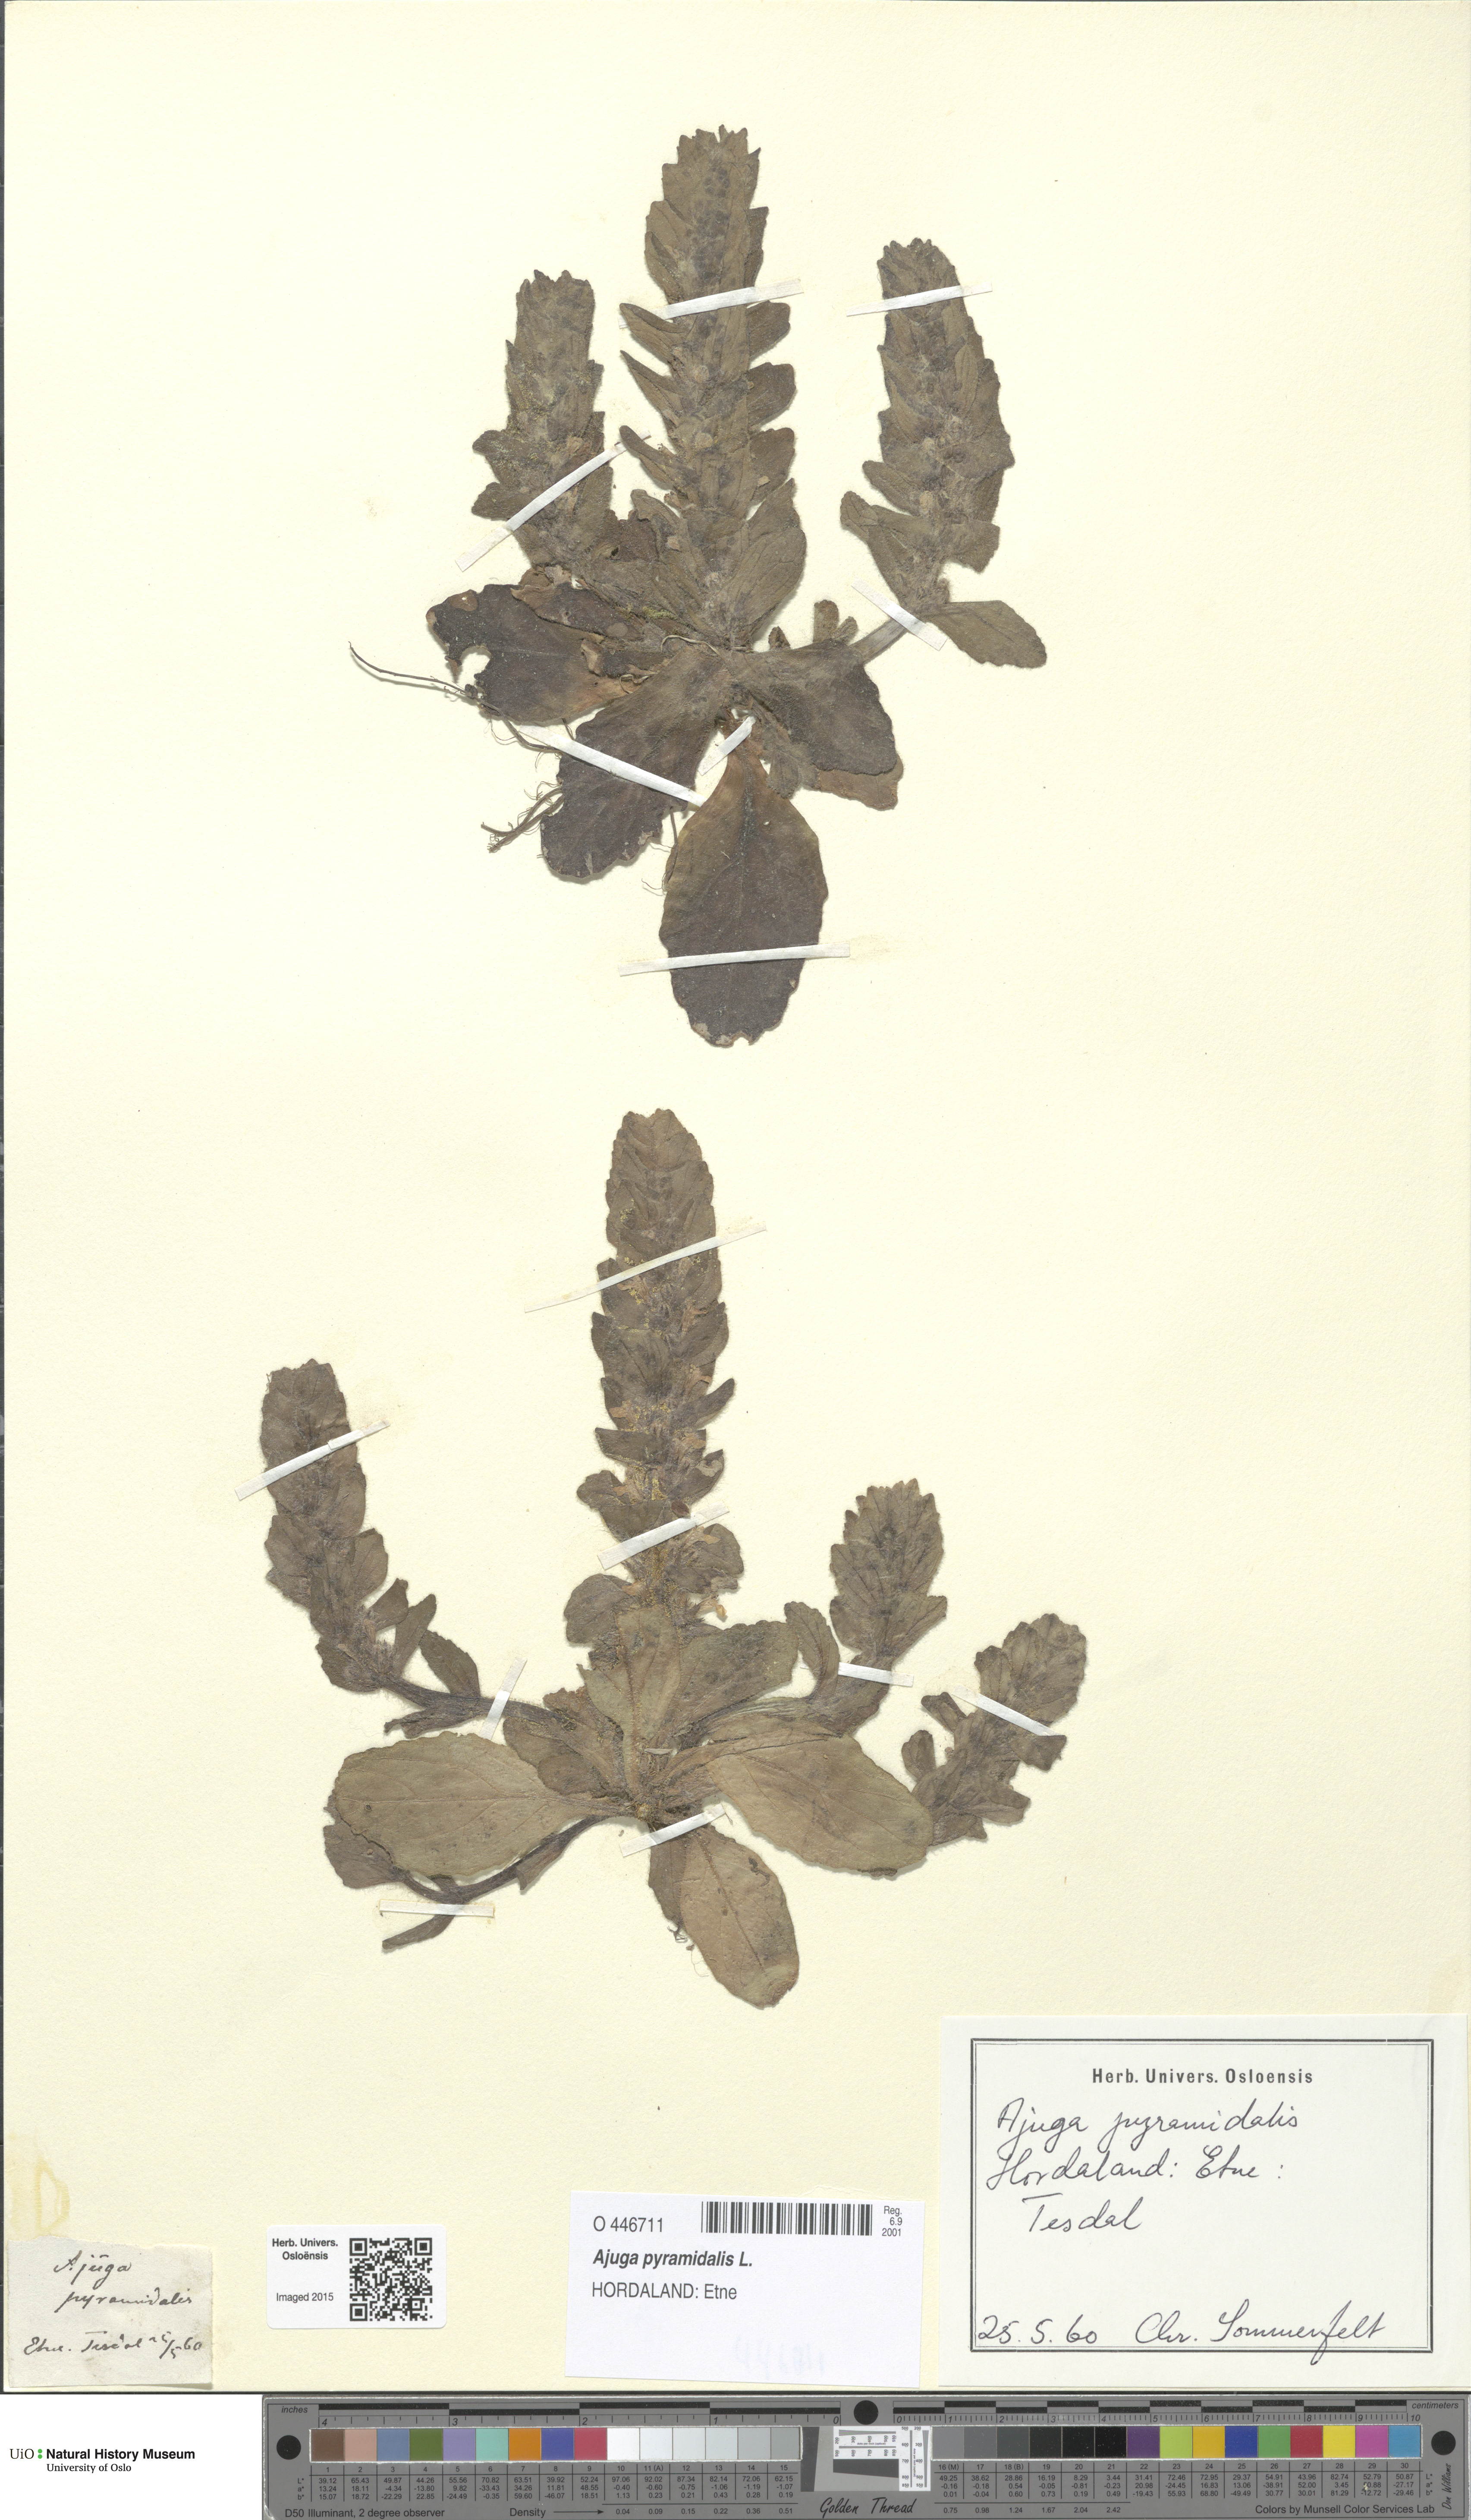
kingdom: Plantae
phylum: Tracheophyta
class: Magnoliopsida
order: Lamiales
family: Lamiaceae
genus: Ajuga
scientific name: Ajuga pyramidalis
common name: Pyramid bugle
